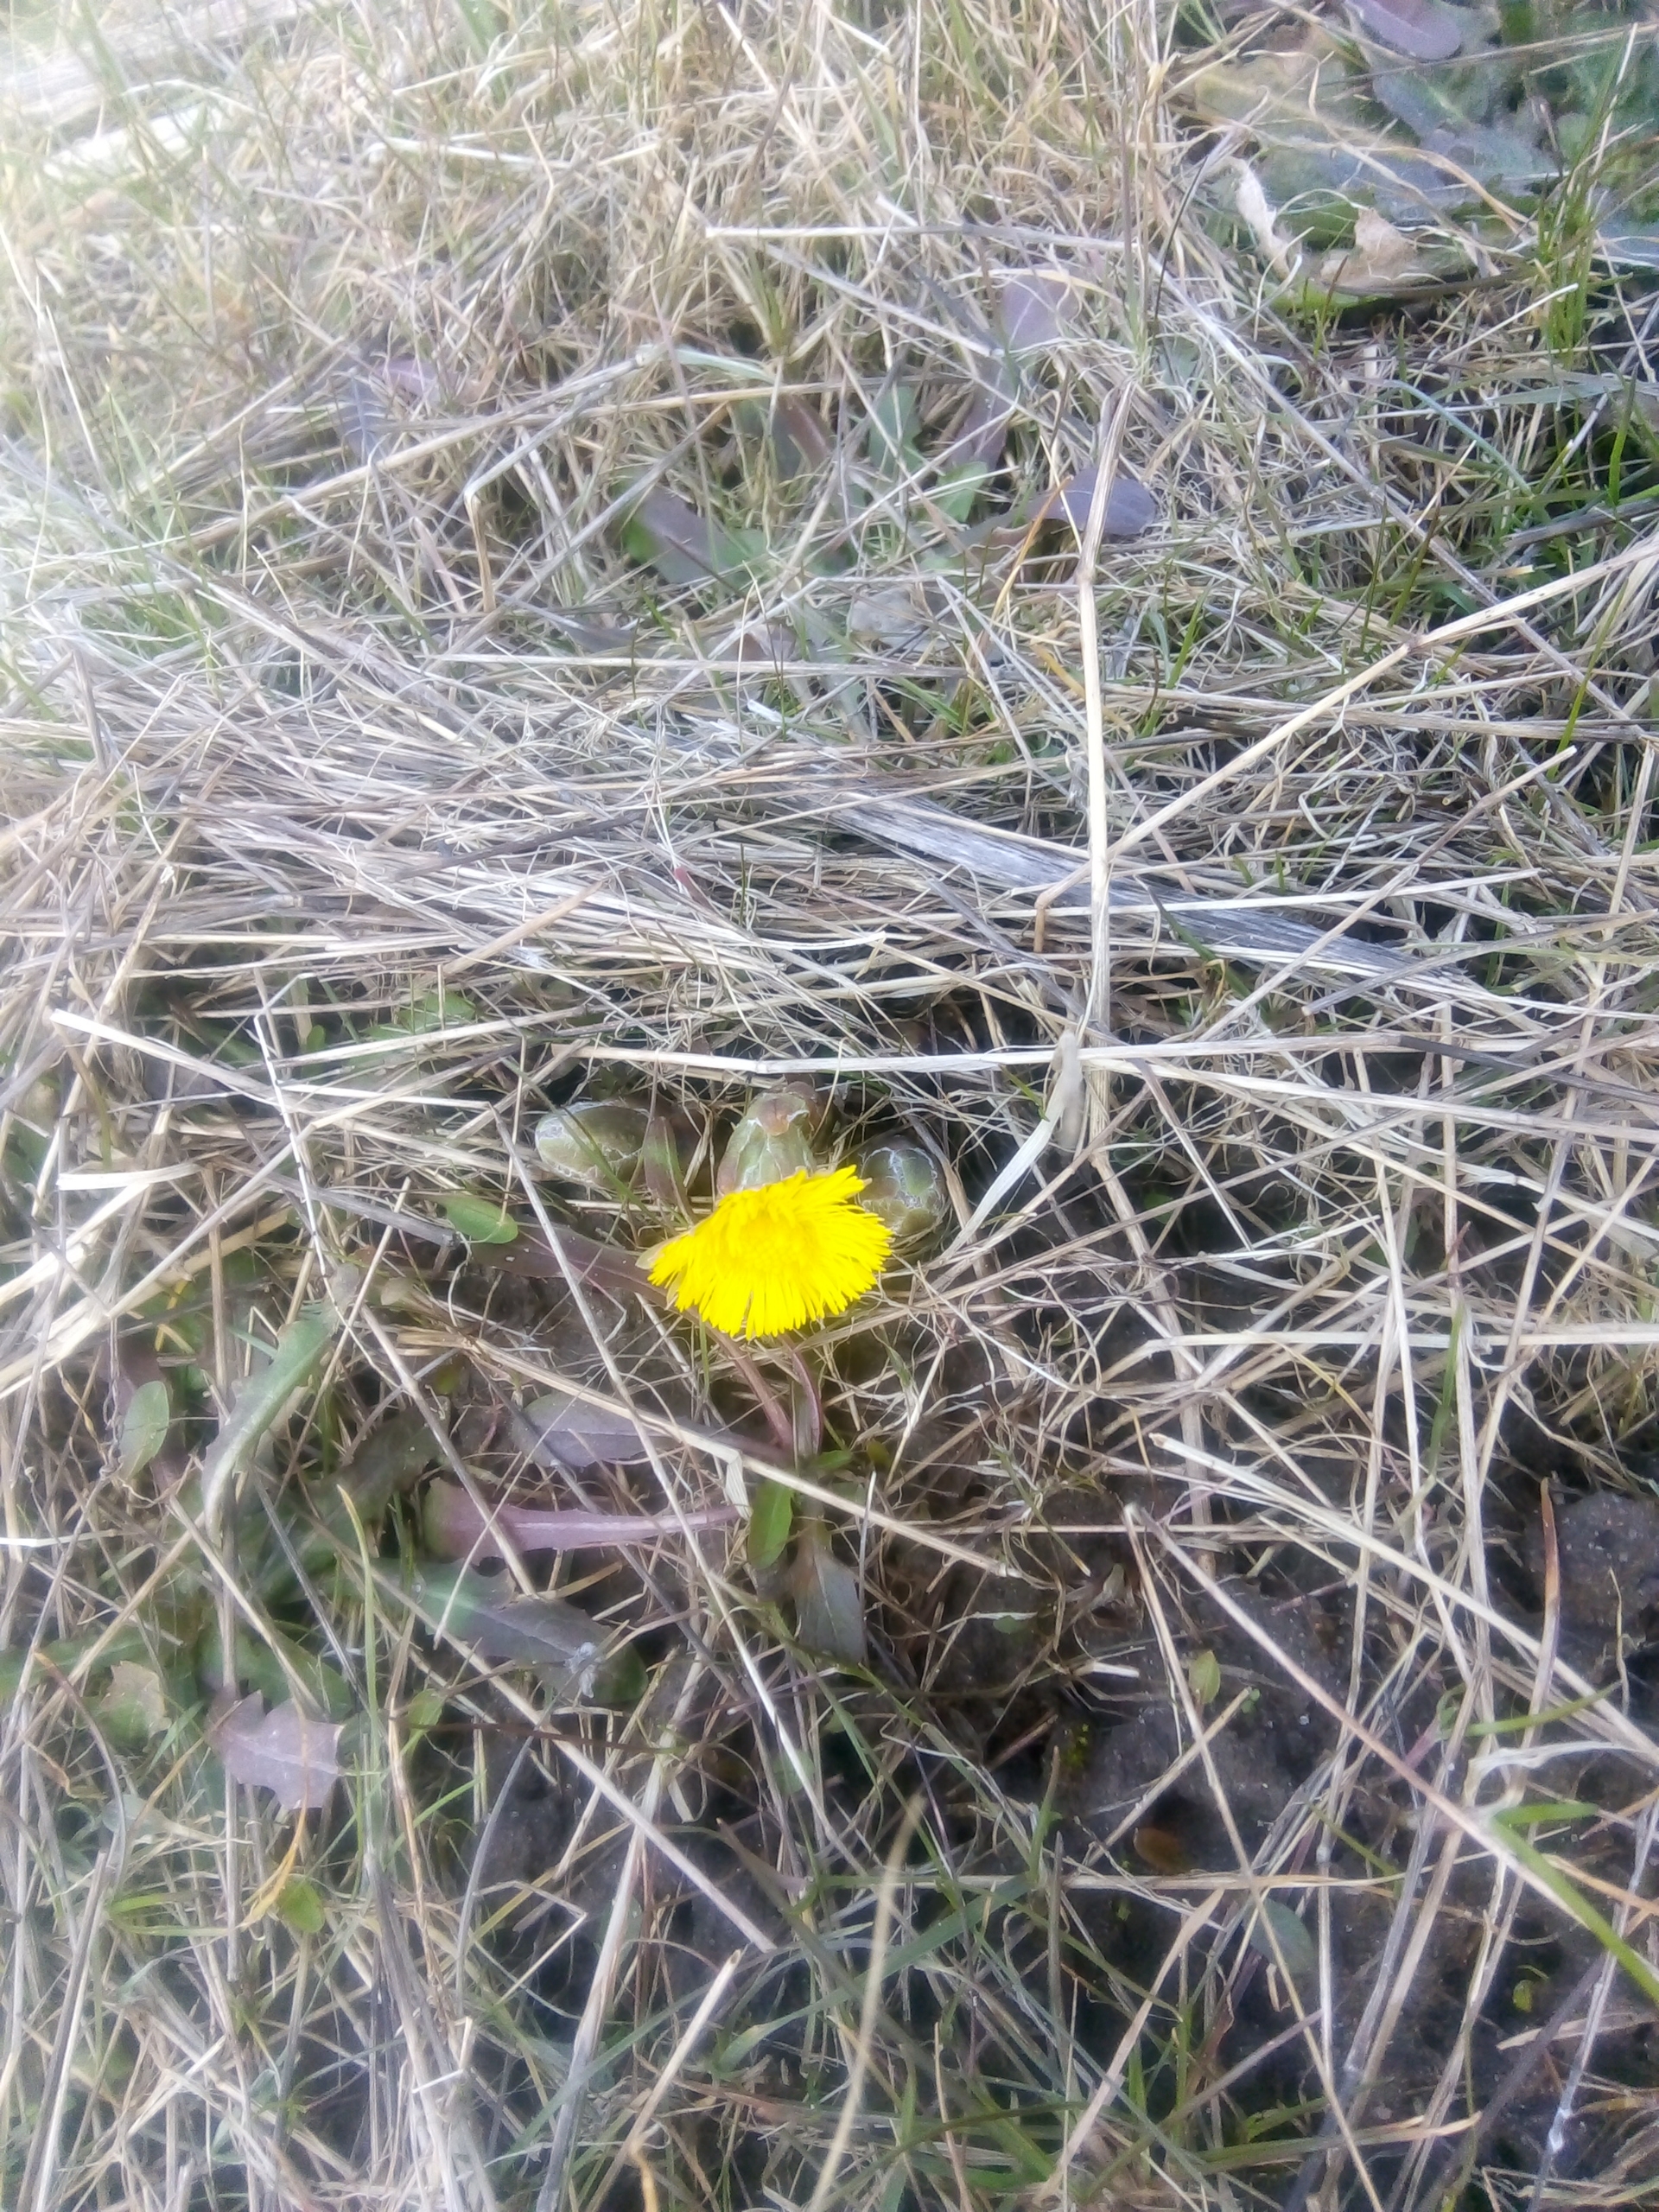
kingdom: Plantae
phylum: Tracheophyta
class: Magnoliopsida
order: Asterales
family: Asteraceae
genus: Tussilago
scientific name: Tussilago farfara
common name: Følfod
